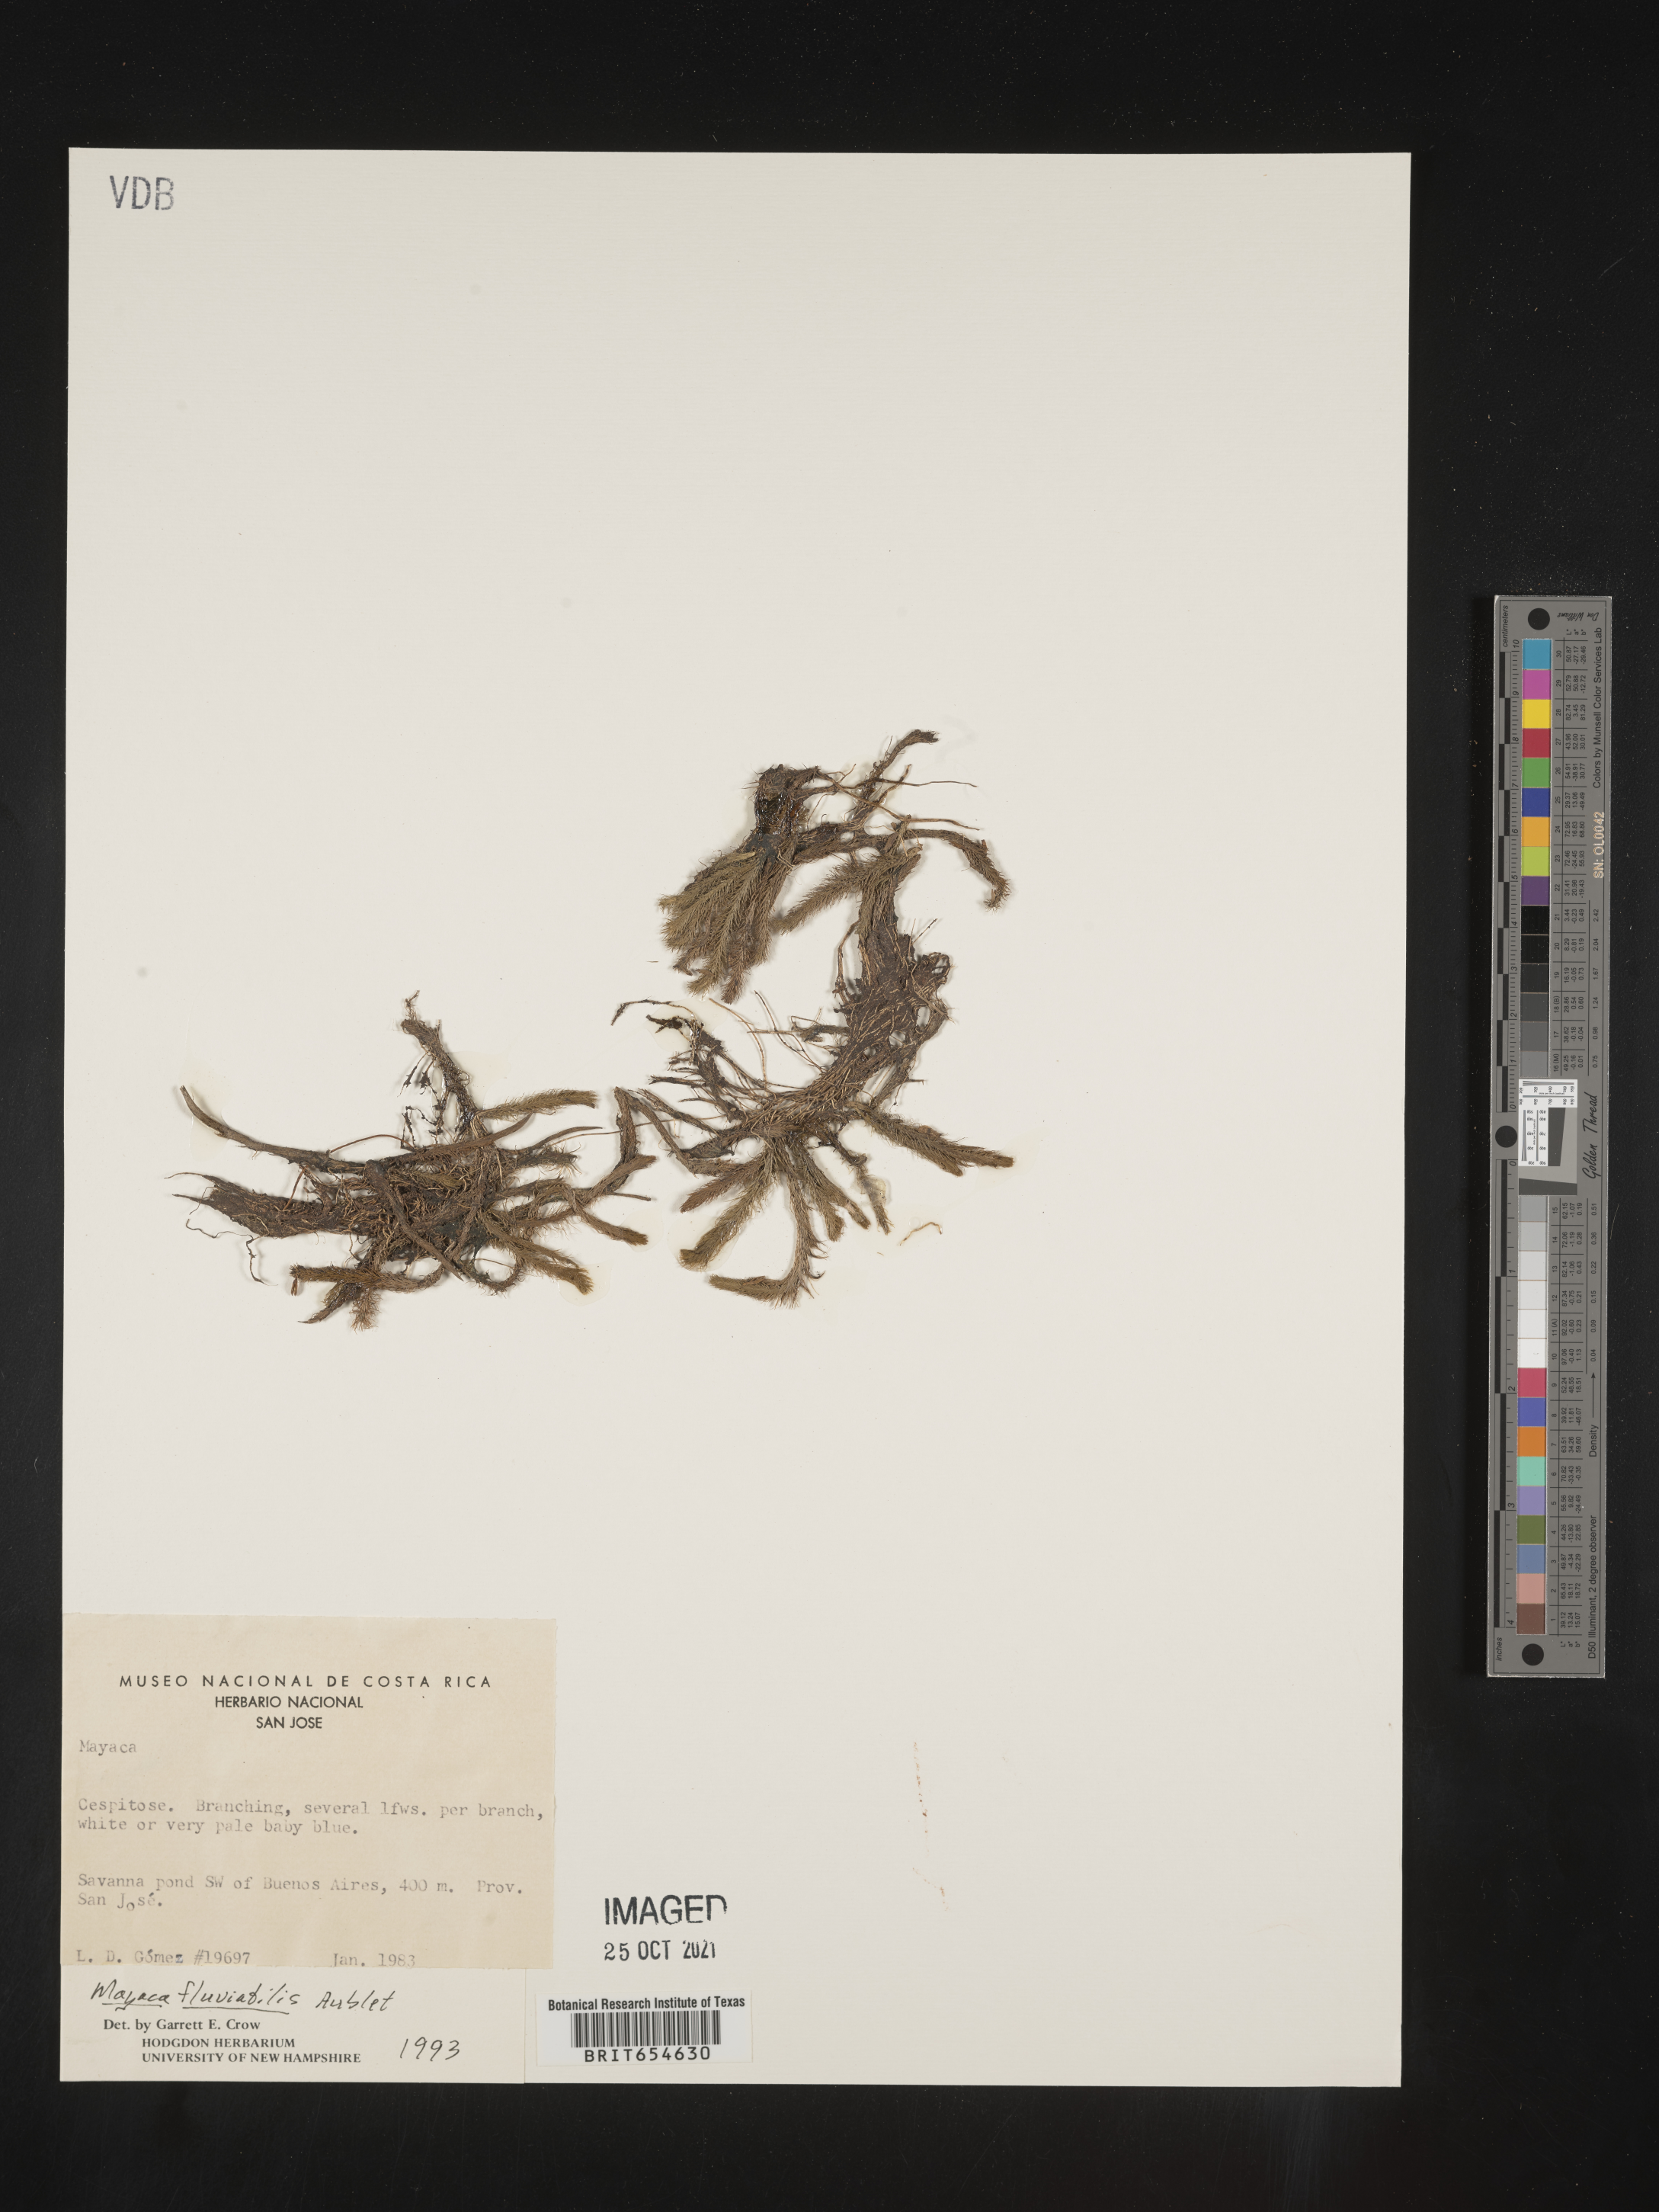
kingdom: Plantae
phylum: Tracheophyta
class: Liliopsida
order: Poales
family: Mayacaceae
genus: Mayaca
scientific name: Mayaca
